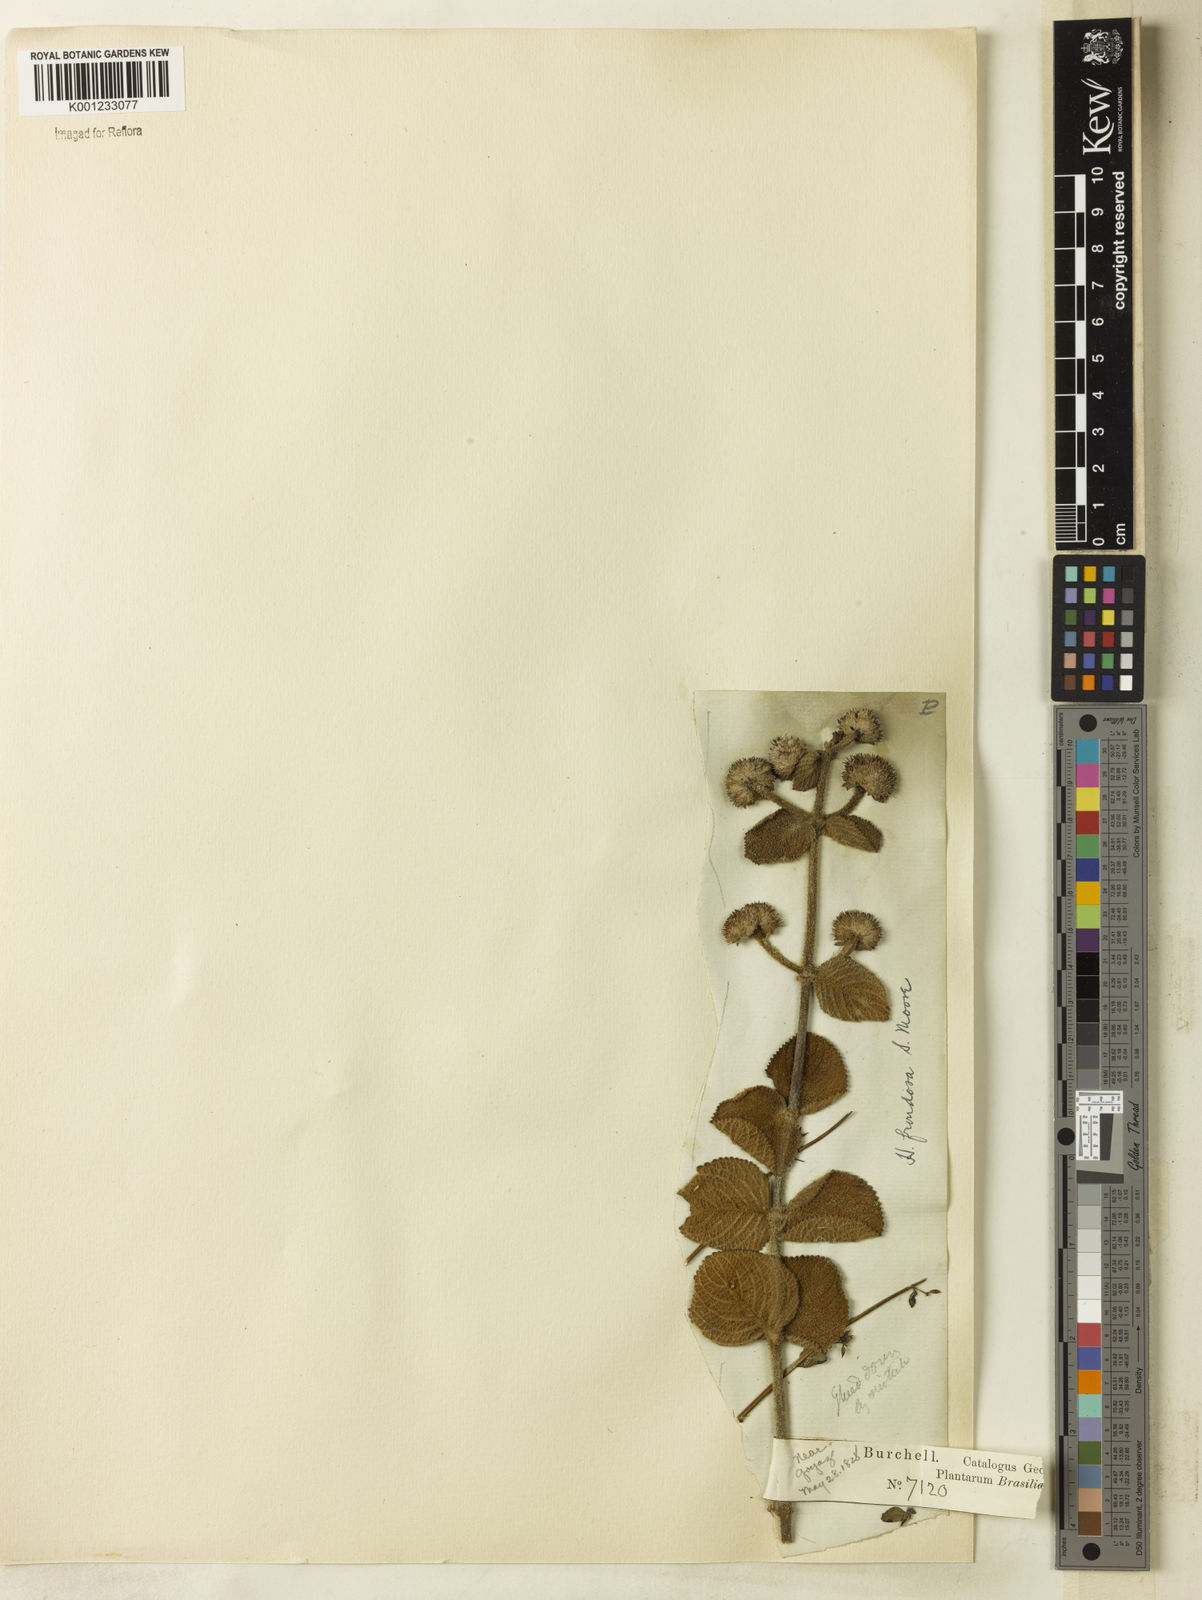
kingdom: Plantae
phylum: Tracheophyta
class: Magnoliopsida
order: Lamiales
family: Lamiaceae
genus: Hyptis
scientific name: Hyptis villosa
